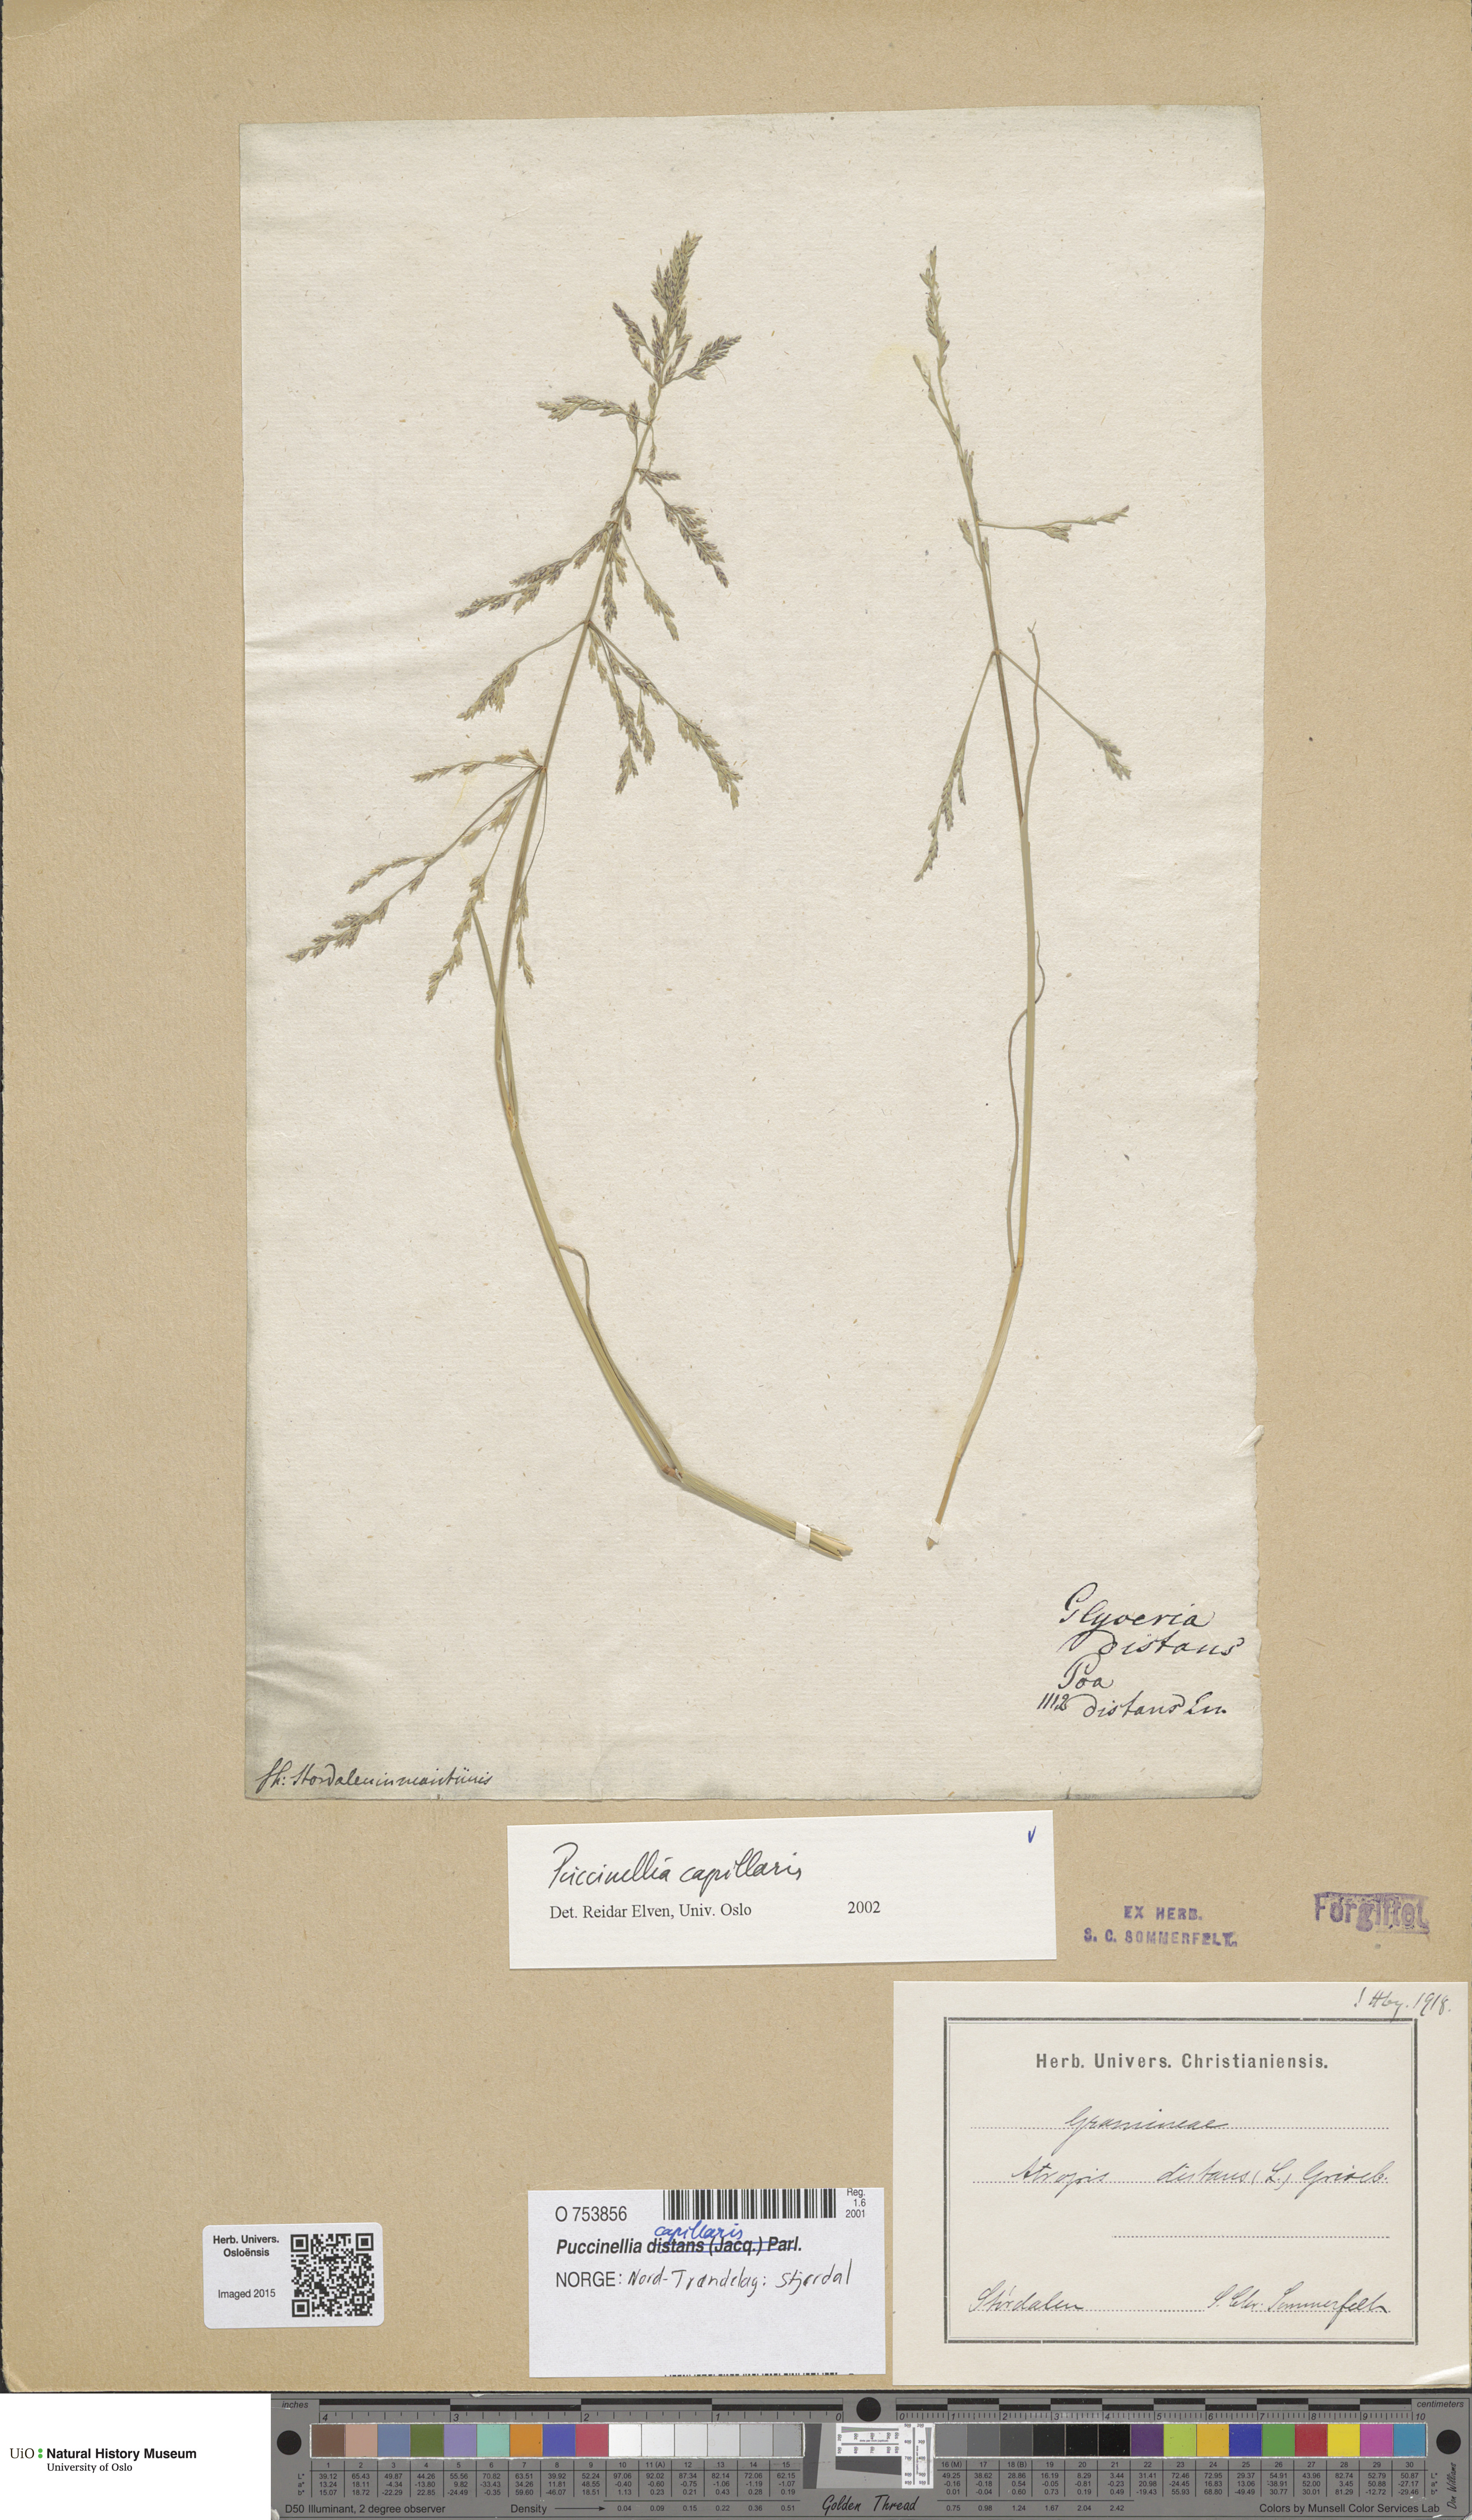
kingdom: Plantae
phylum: Tracheophyta
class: Liliopsida
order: Poales
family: Poaceae
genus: Puccinellia
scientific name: Puccinellia distans
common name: Weeping alkaligrass
